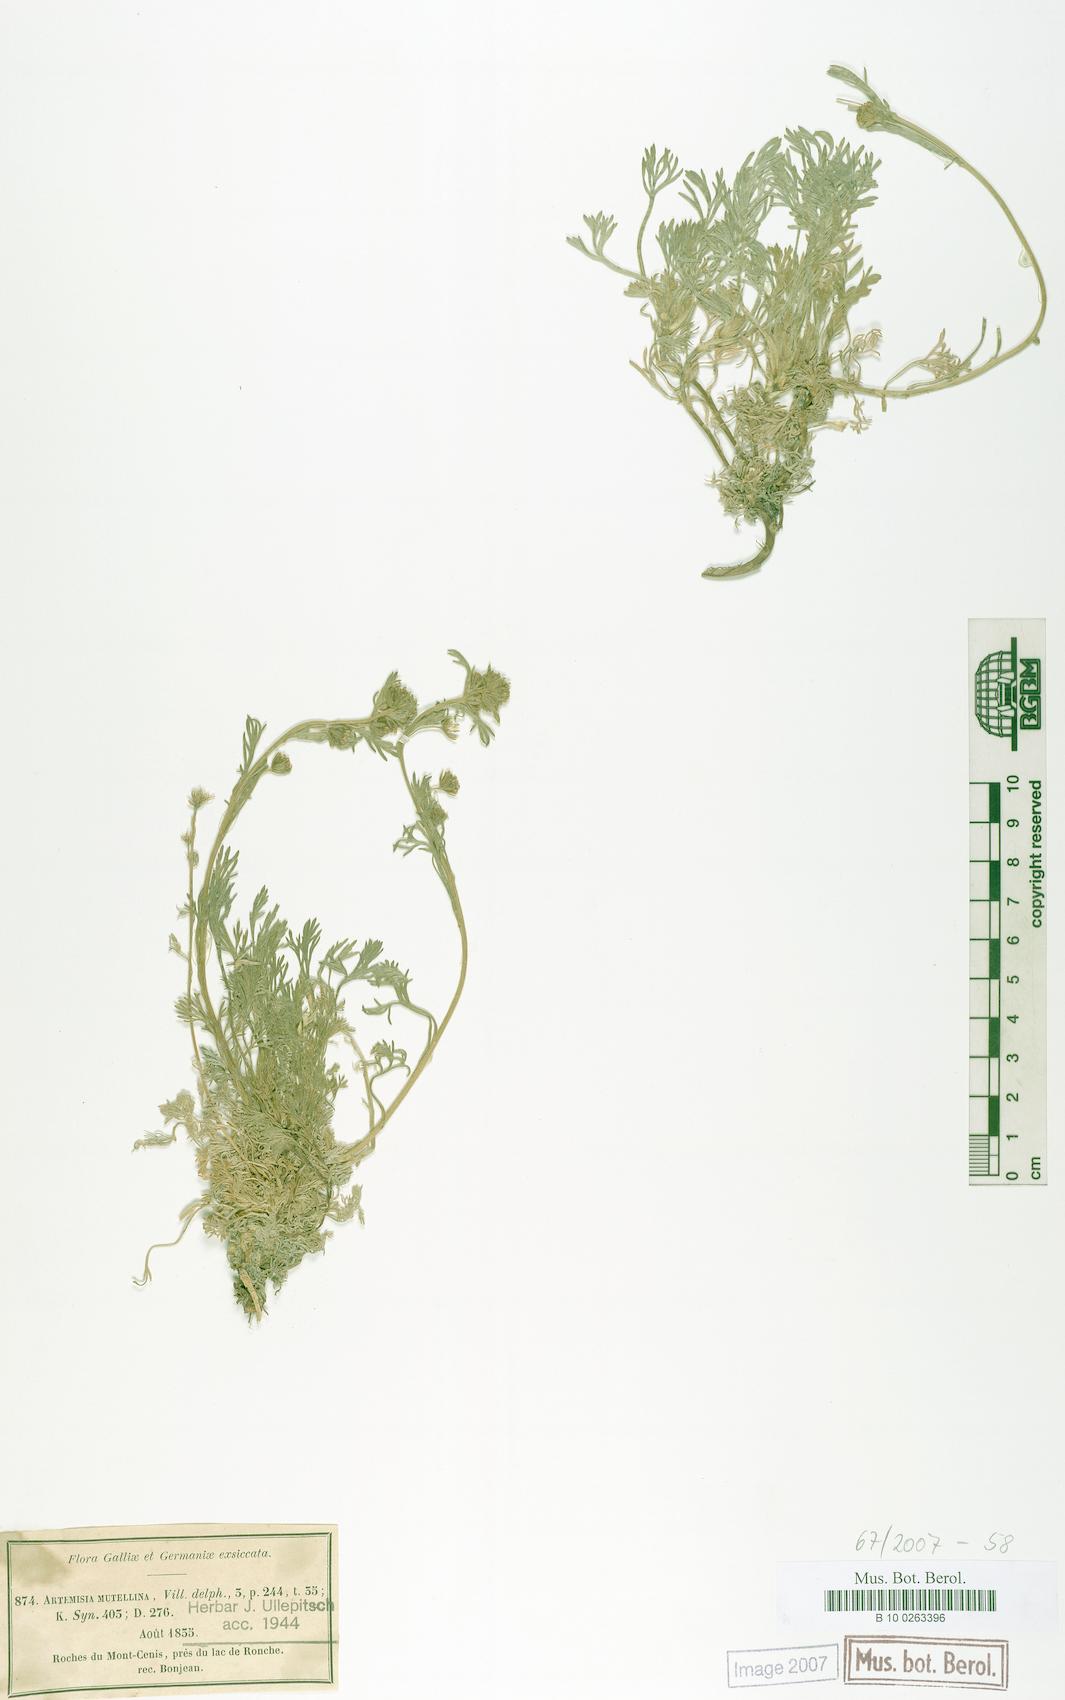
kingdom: Plantae
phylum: Tracheophyta
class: Magnoliopsida
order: Asterales
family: Asteraceae
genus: Artemisia
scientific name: Artemisia mutellina
